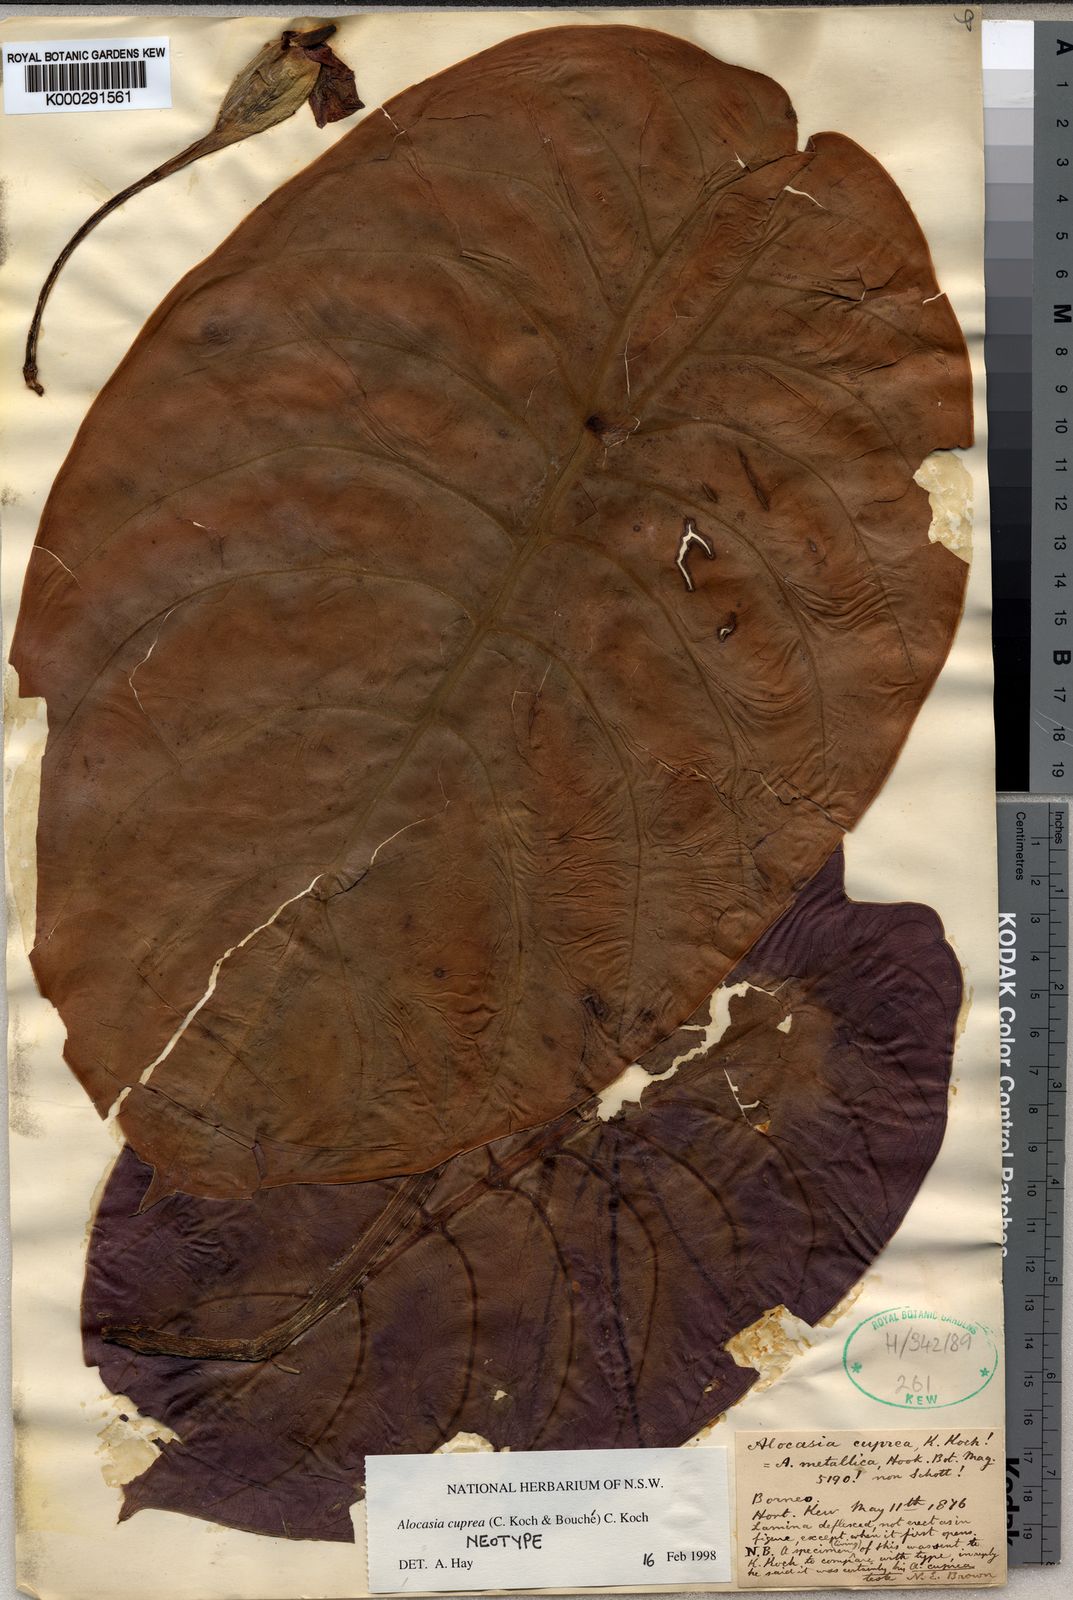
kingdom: Plantae
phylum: Tracheophyta
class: Liliopsida
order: Alismatales
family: Araceae
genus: Alocasia
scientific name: Alocasia
